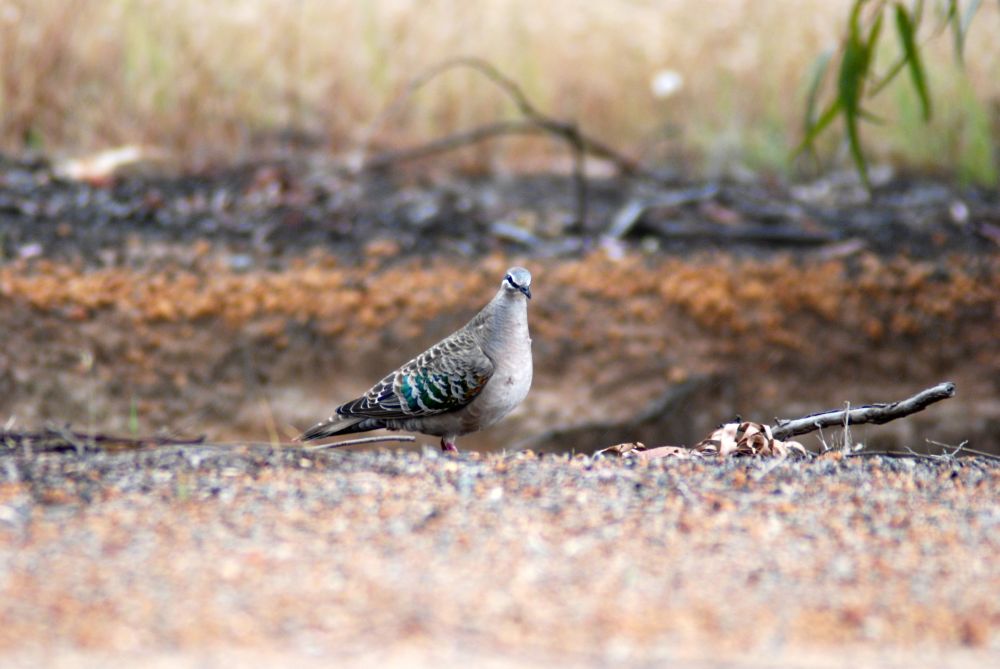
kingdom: Animalia
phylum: Chordata
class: Aves
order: Columbiformes
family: Columbidae
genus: Phaps
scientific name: Phaps chalcoptera
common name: Common bronzewing
